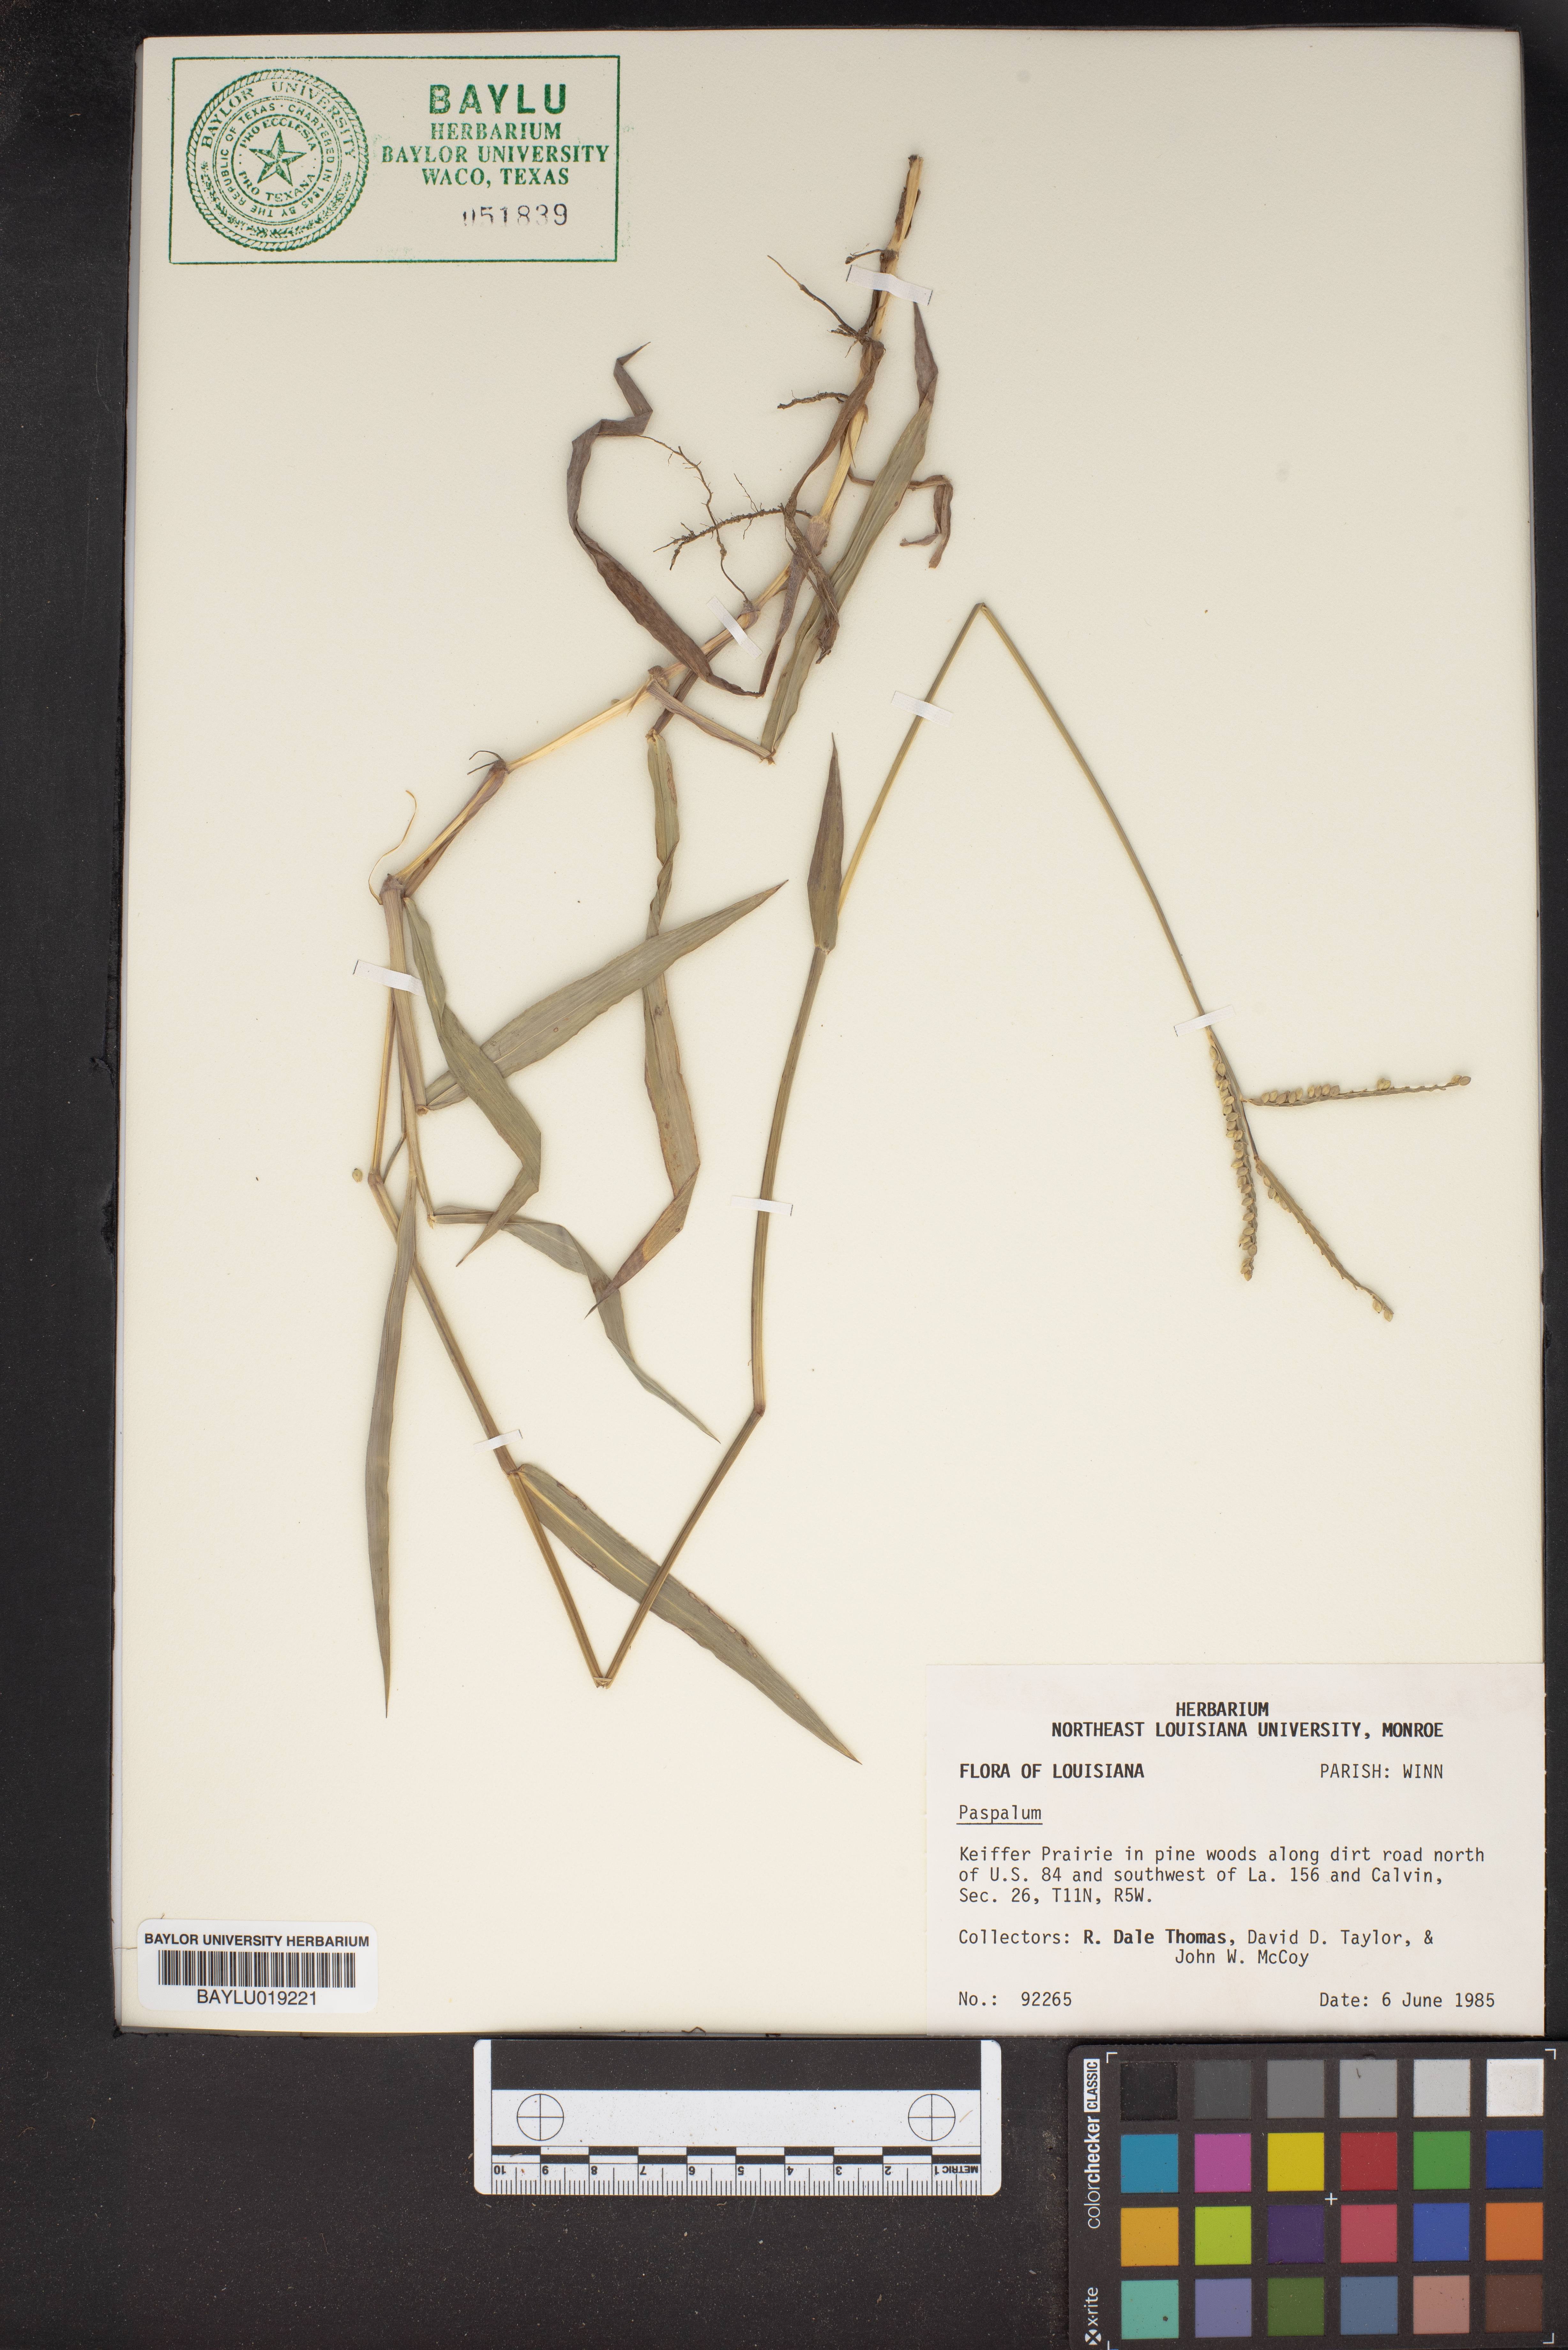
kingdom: Plantae
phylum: Tracheophyta
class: Liliopsida
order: Poales
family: Poaceae
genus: Paspalum
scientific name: Paspalum
